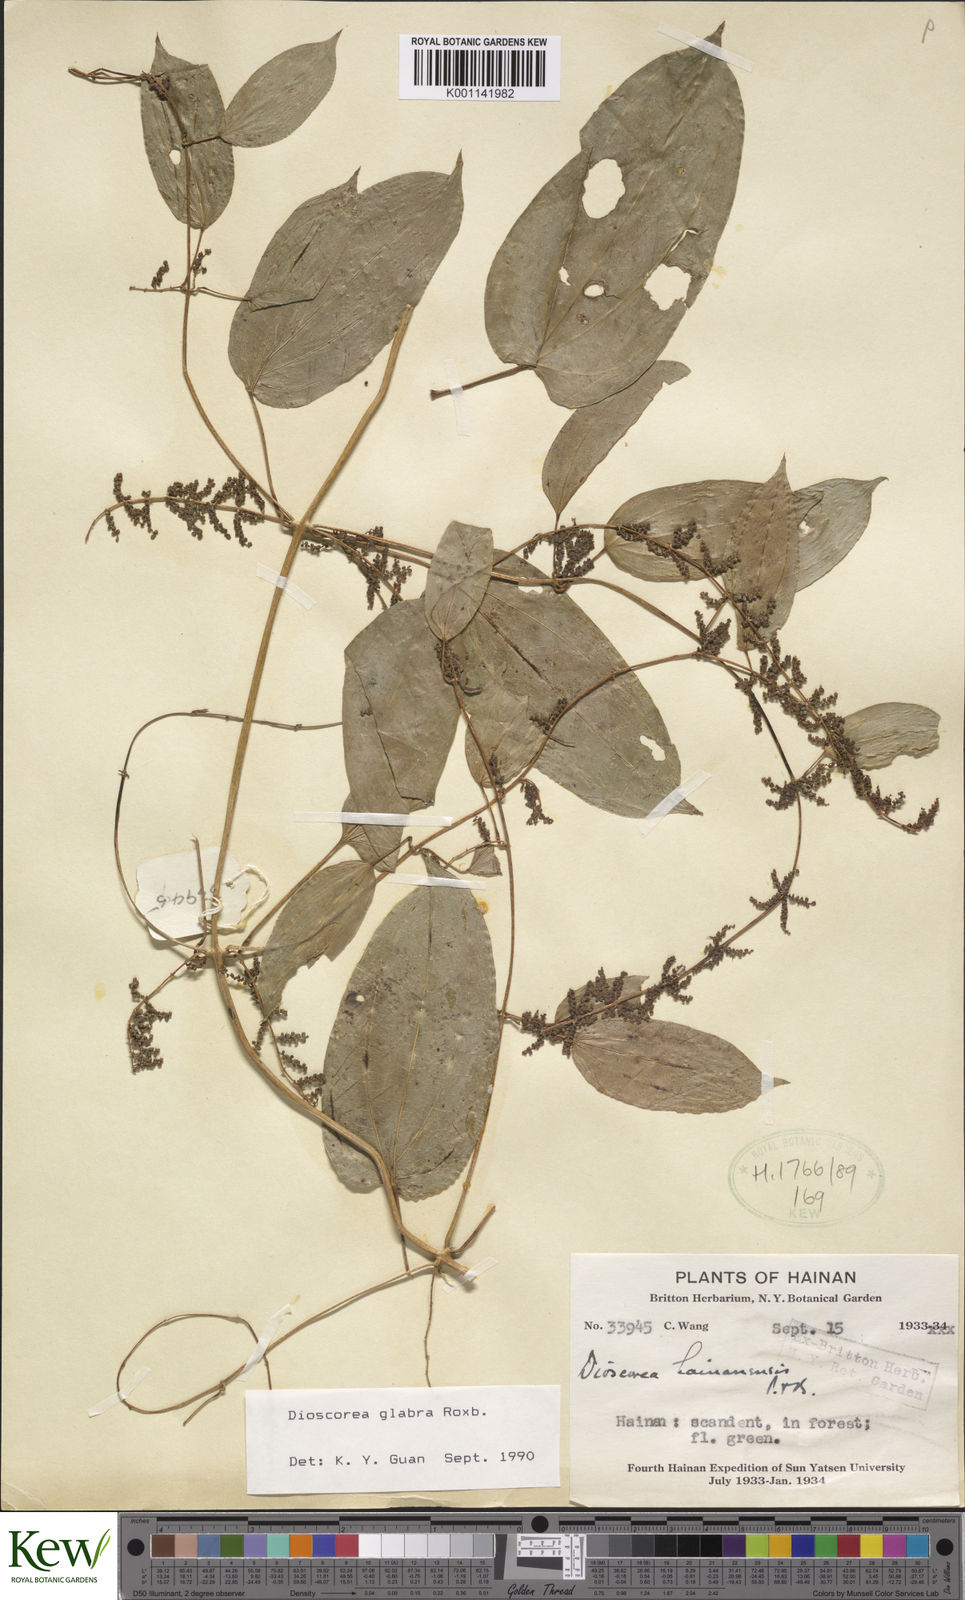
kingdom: Plantae
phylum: Tracheophyta
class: Liliopsida
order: Dioscoreales
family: Dioscoreaceae
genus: Dioscorea
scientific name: Dioscorea glabra
